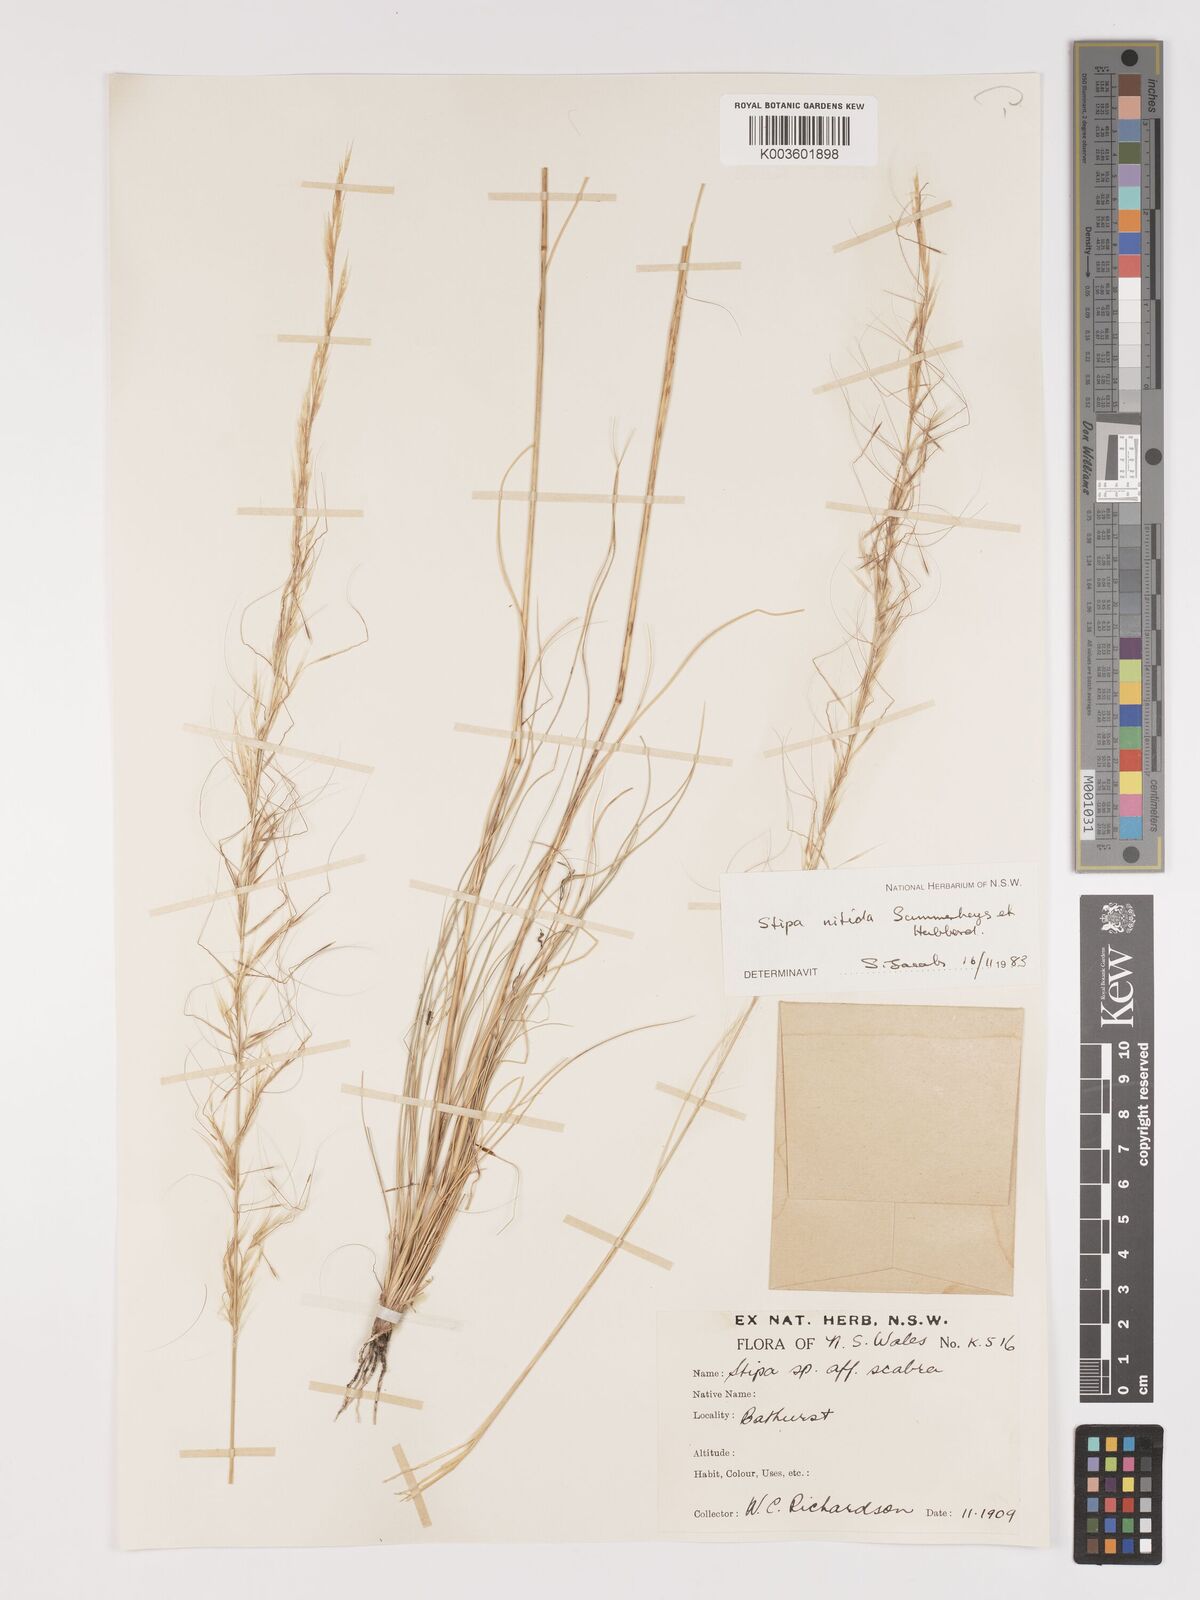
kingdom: Plantae
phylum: Tracheophyta
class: Liliopsida
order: Poales
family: Poaceae
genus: Austrostipa
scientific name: Austrostipa nitida
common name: Balcarra grass
